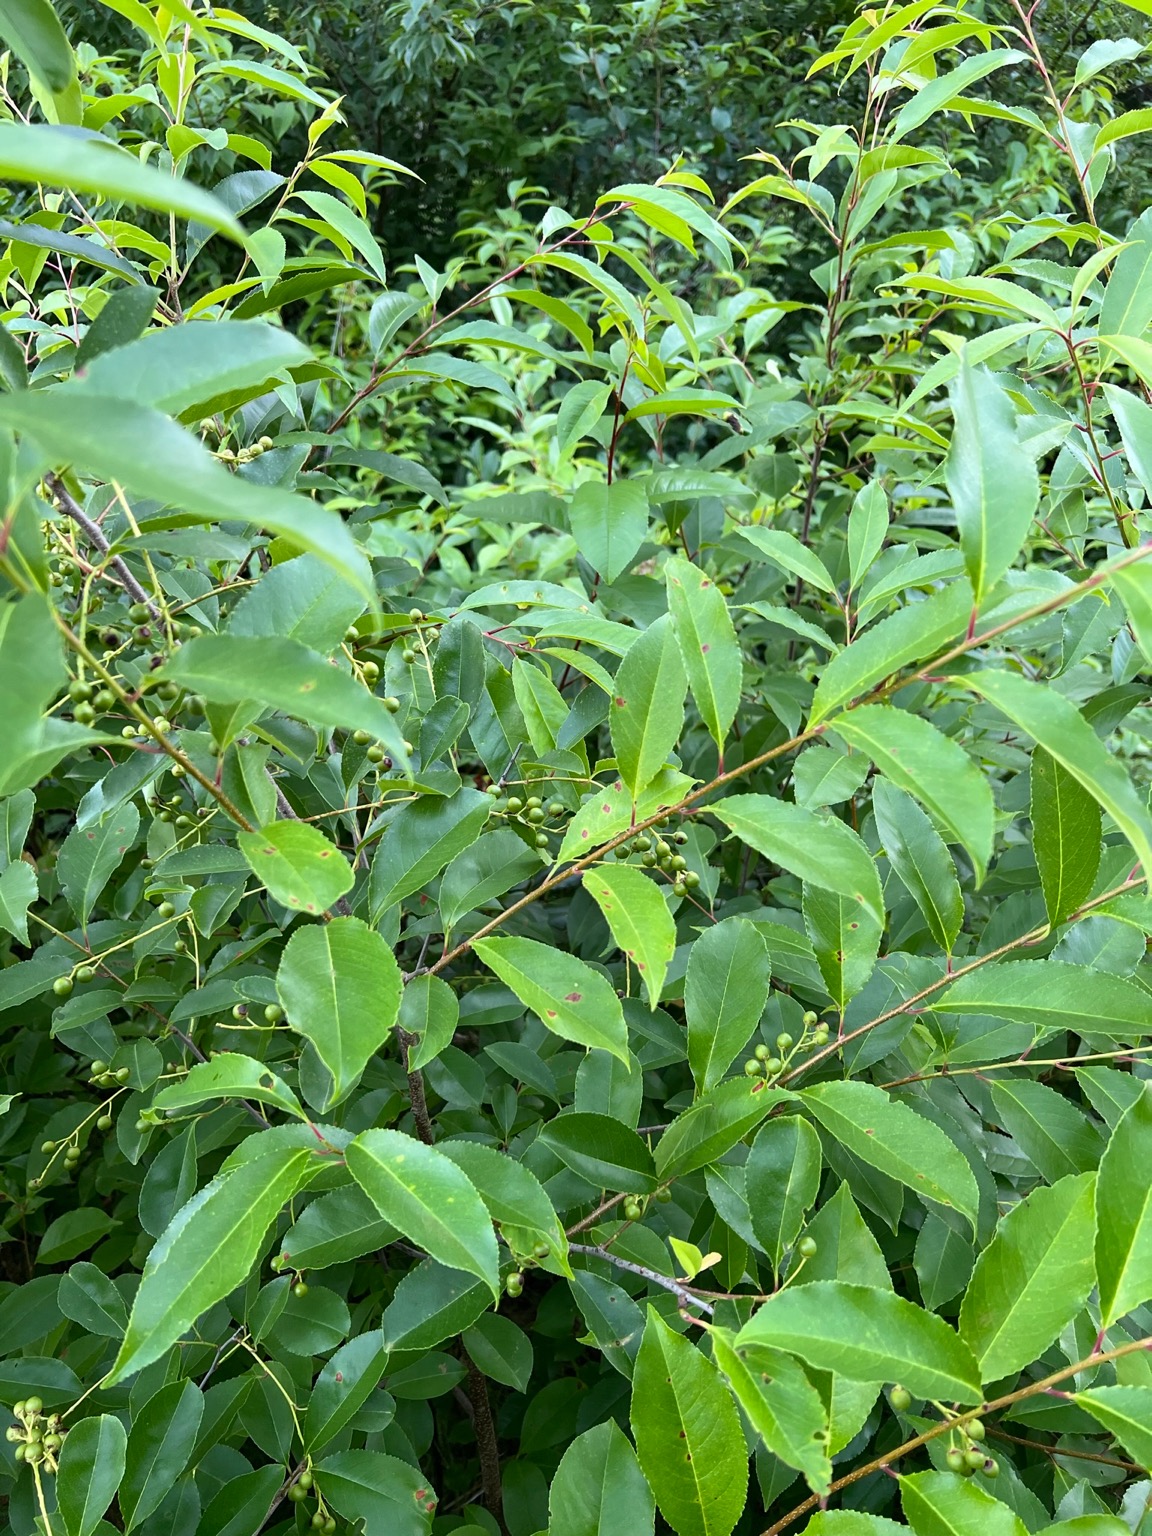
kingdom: Plantae
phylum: Tracheophyta
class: Magnoliopsida
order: Rosales
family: Rosaceae
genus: Prunus
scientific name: Prunus serotina
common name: Glansbladet hæg
